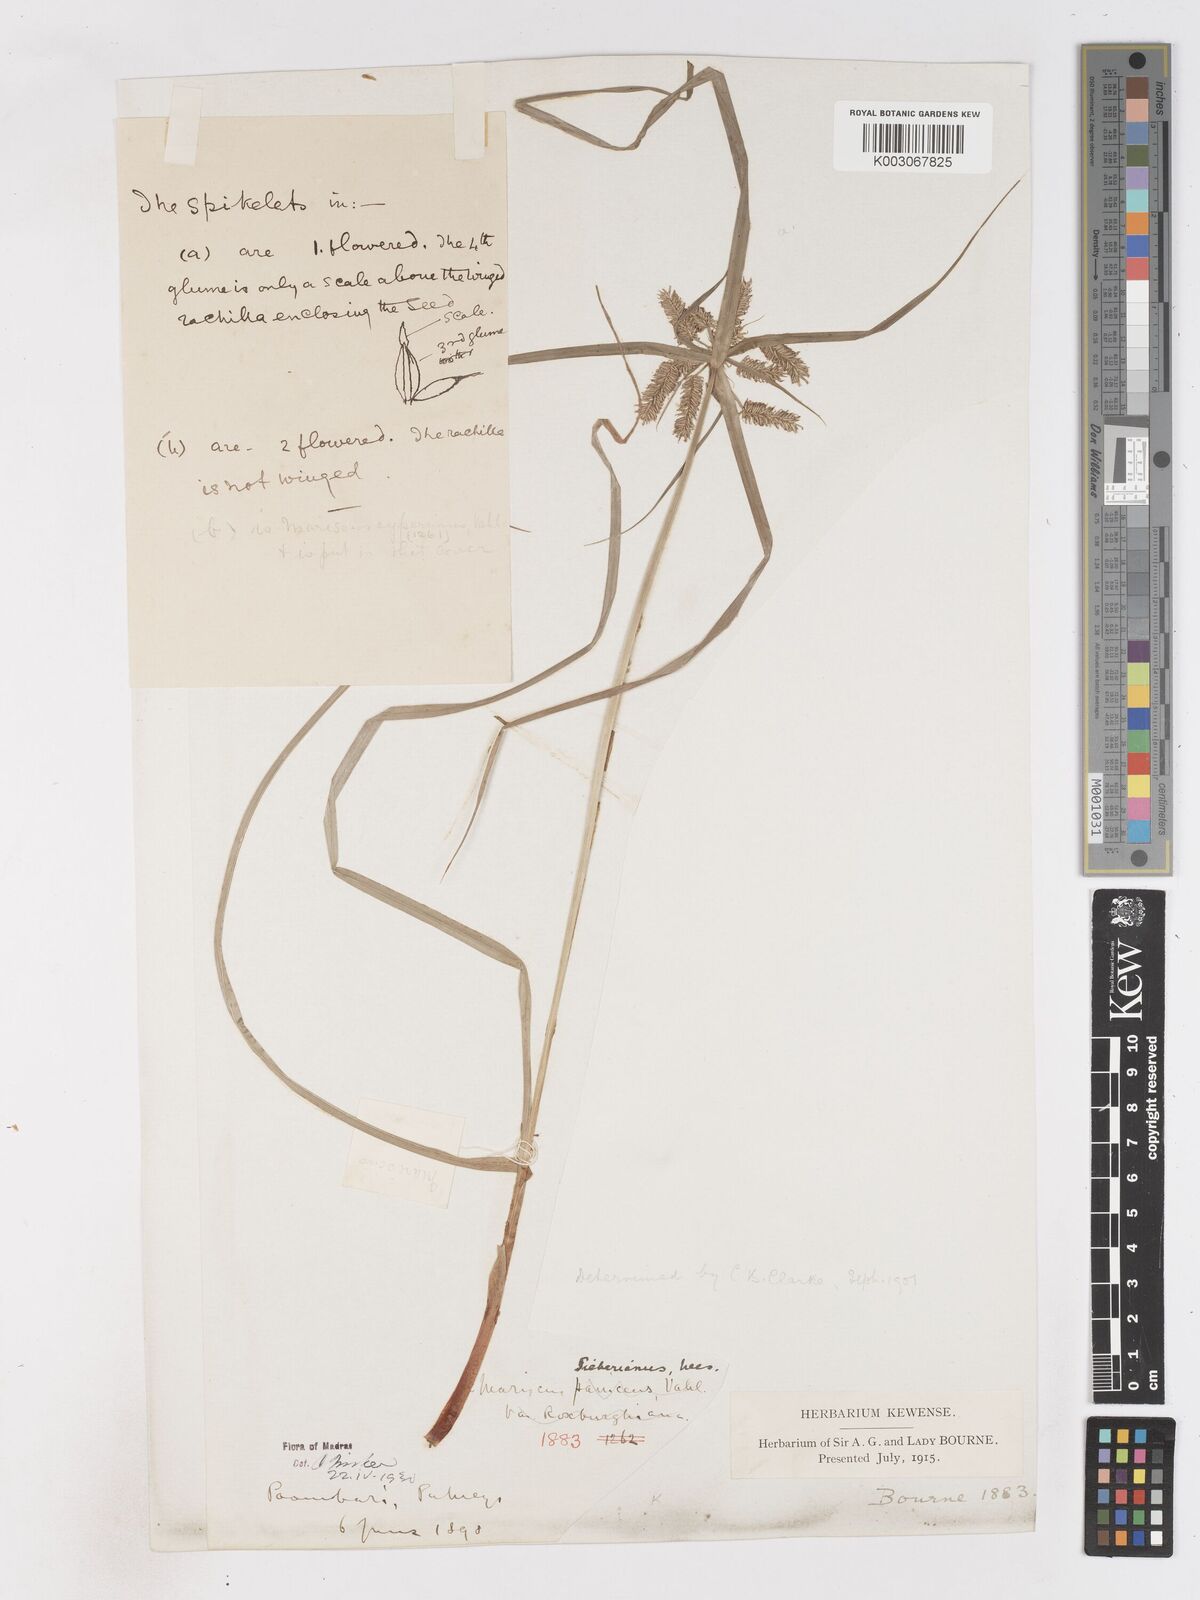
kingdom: Plantae
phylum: Tracheophyta
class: Liliopsida
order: Poales
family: Cyperaceae
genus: Cyperus
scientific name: Cyperus cyperoides
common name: Pacific island flat sedge
